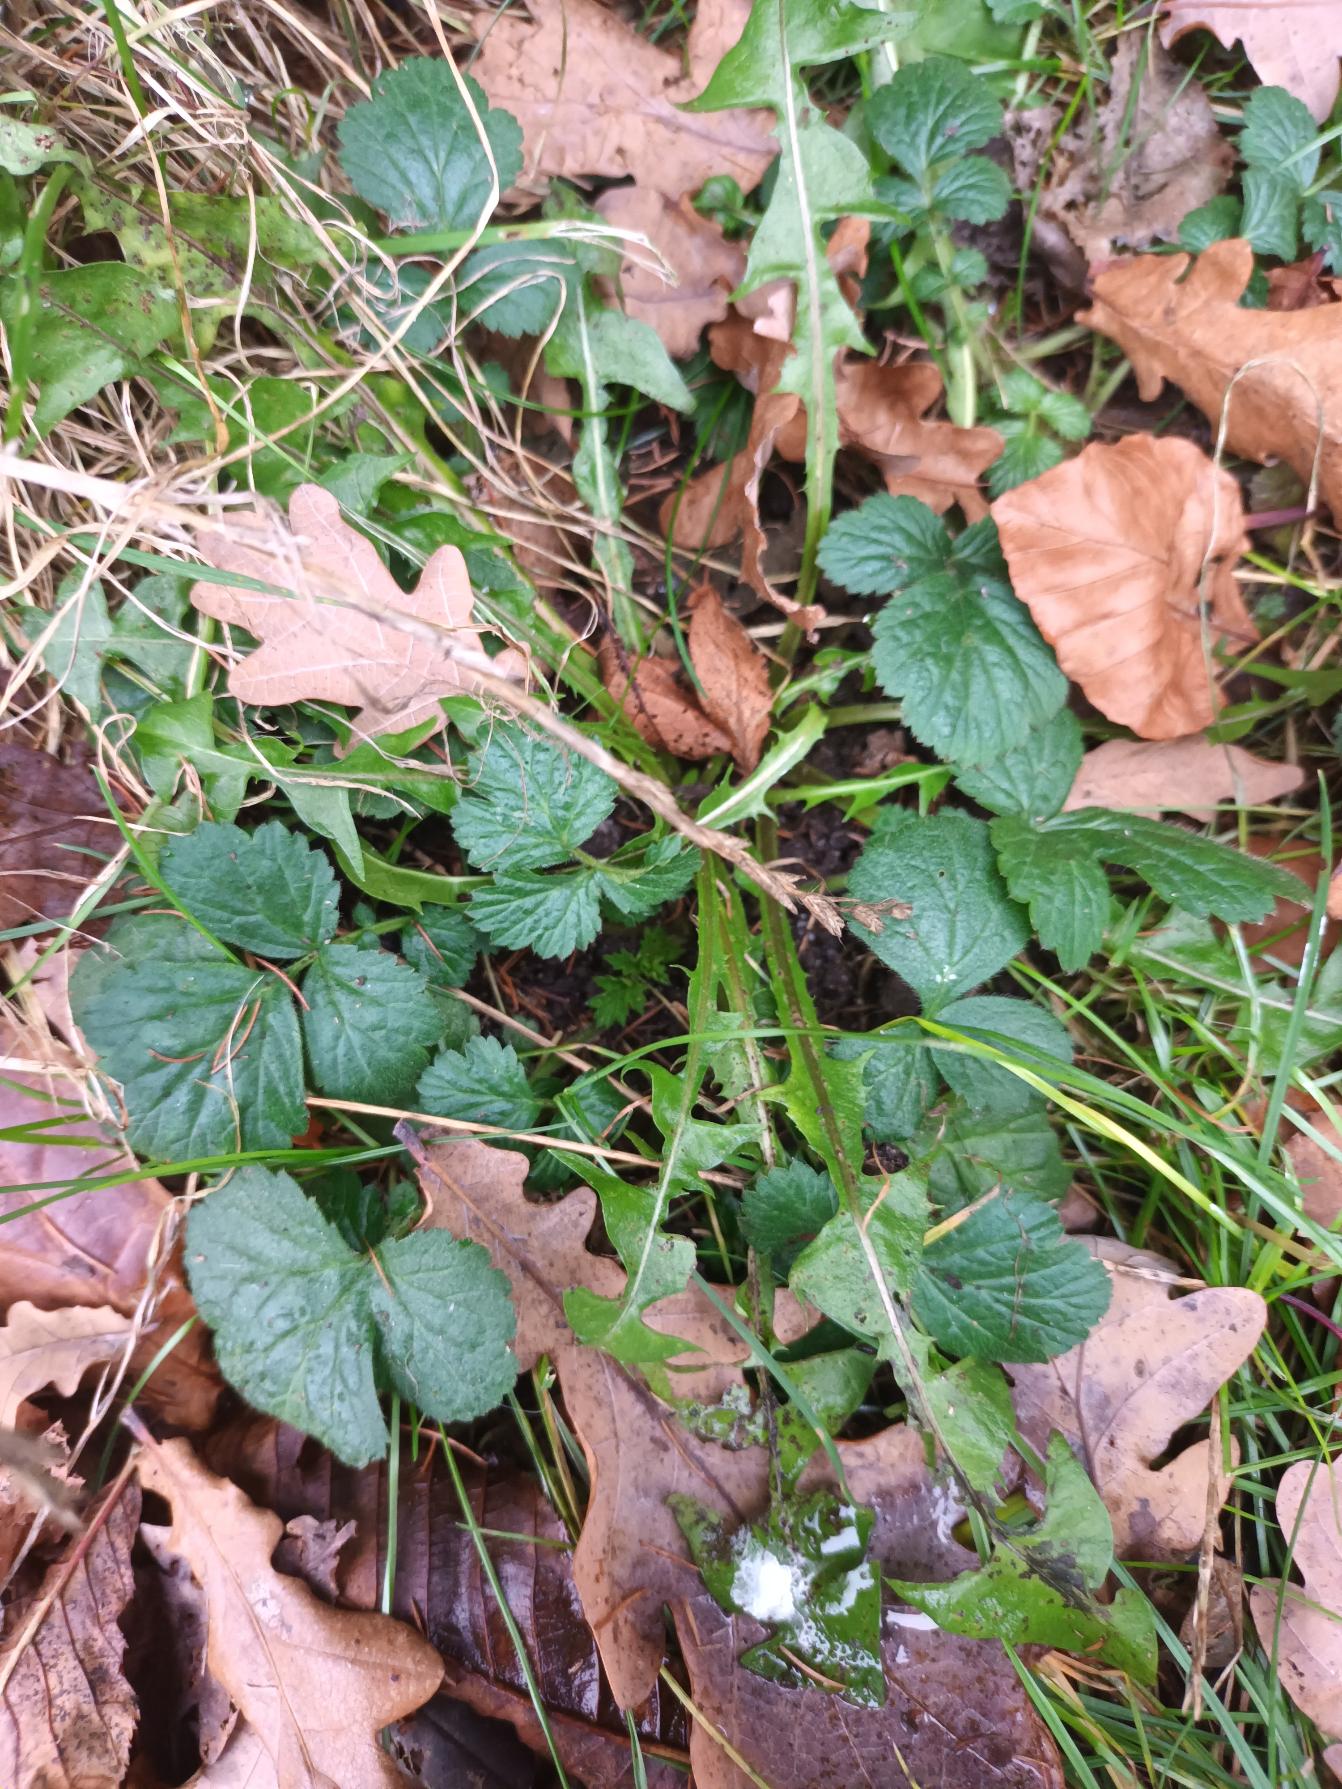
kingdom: Plantae
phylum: Tracheophyta
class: Magnoliopsida
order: Rosales
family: Rosaceae
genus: Geum
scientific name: Geum urbanum
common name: Feber-nellikerod
